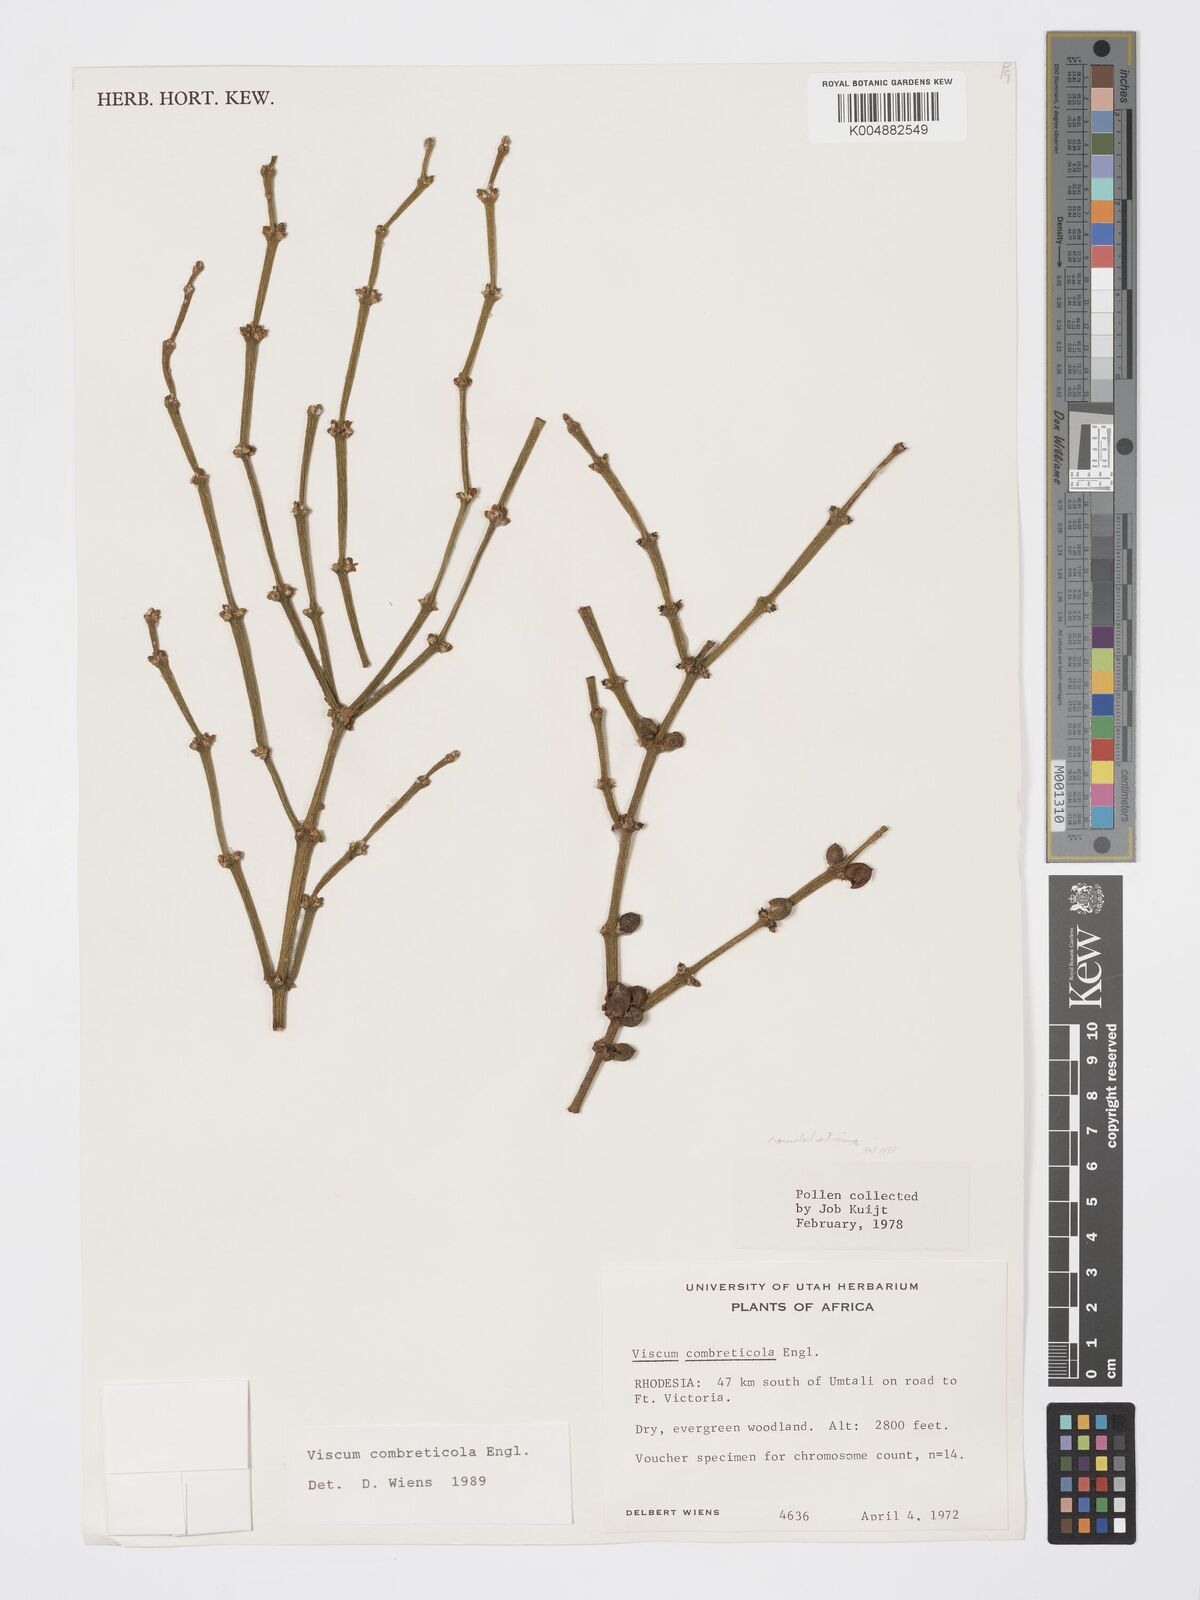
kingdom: Plantae
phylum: Tracheophyta
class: Magnoliopsida
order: Santalales
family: Viscaceae
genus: Viscum
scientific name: Viscum combreticola
